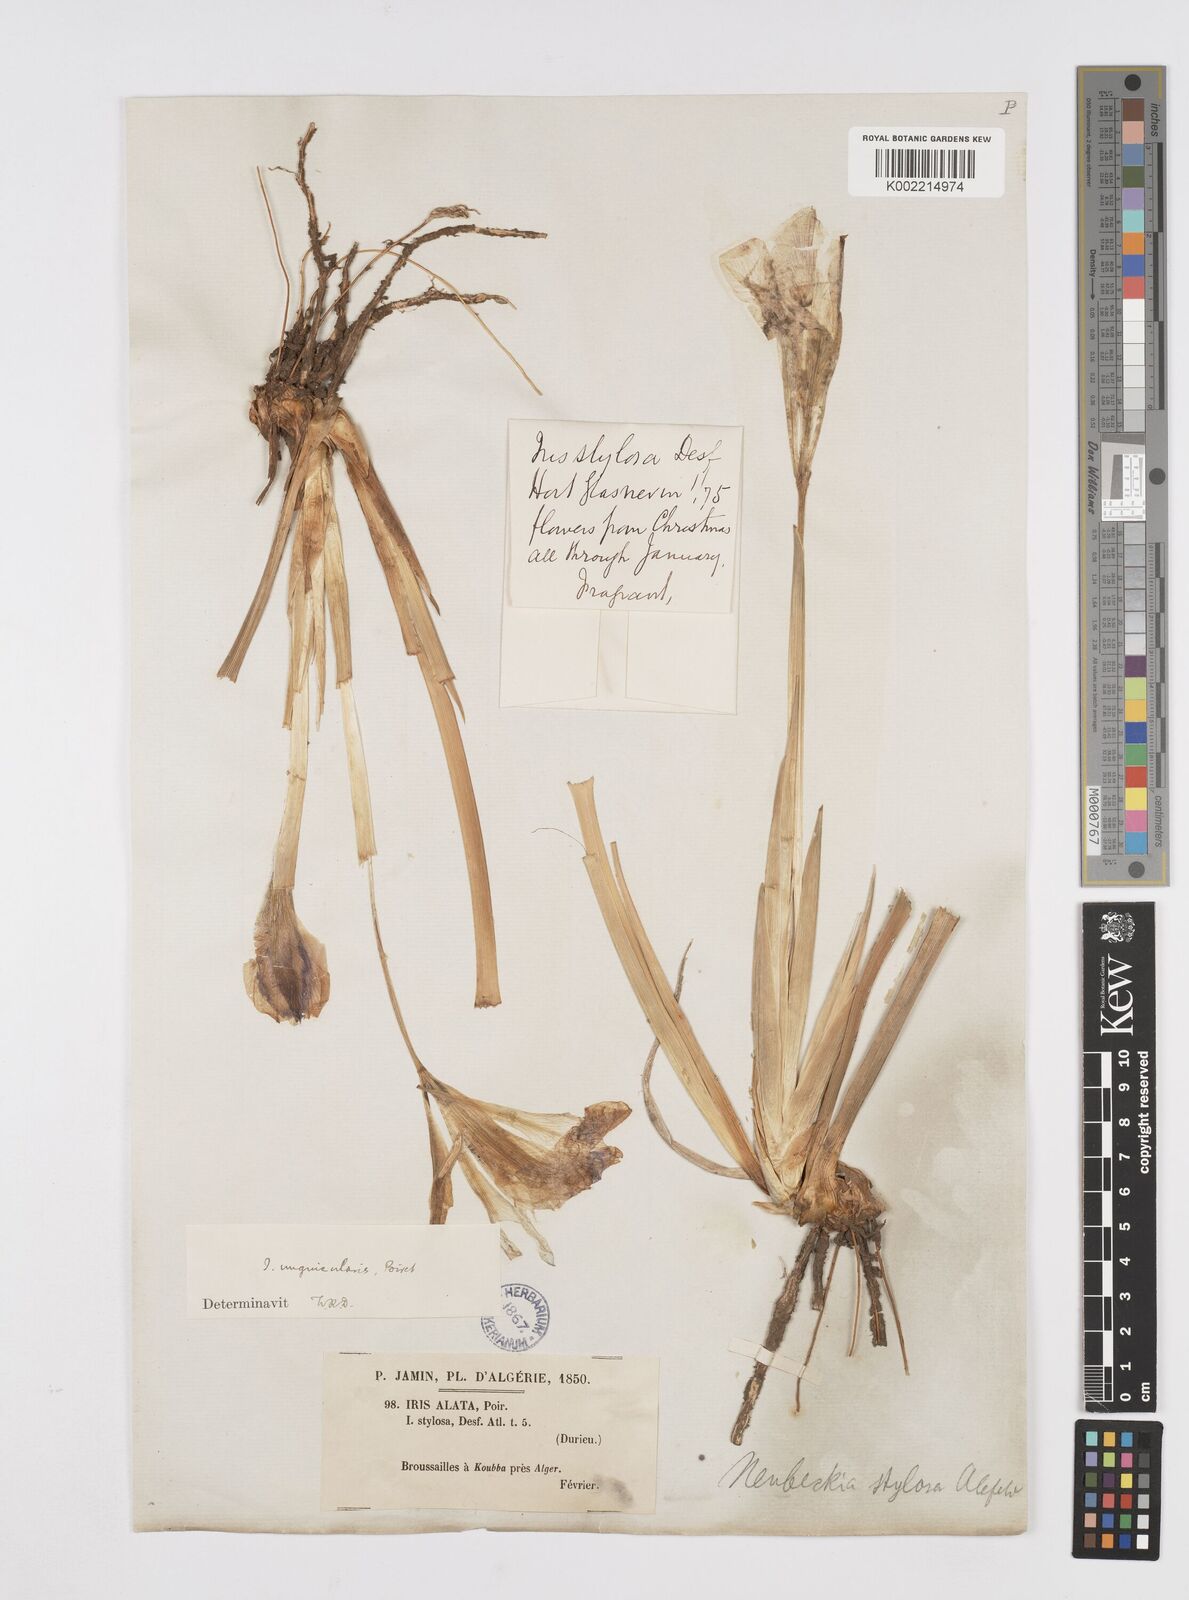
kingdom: Plantae
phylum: Tracheophyta
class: Liliopsida
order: Asparagales
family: Iridaceae
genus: Iris
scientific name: Iris unguicularis
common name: Algerian iris
